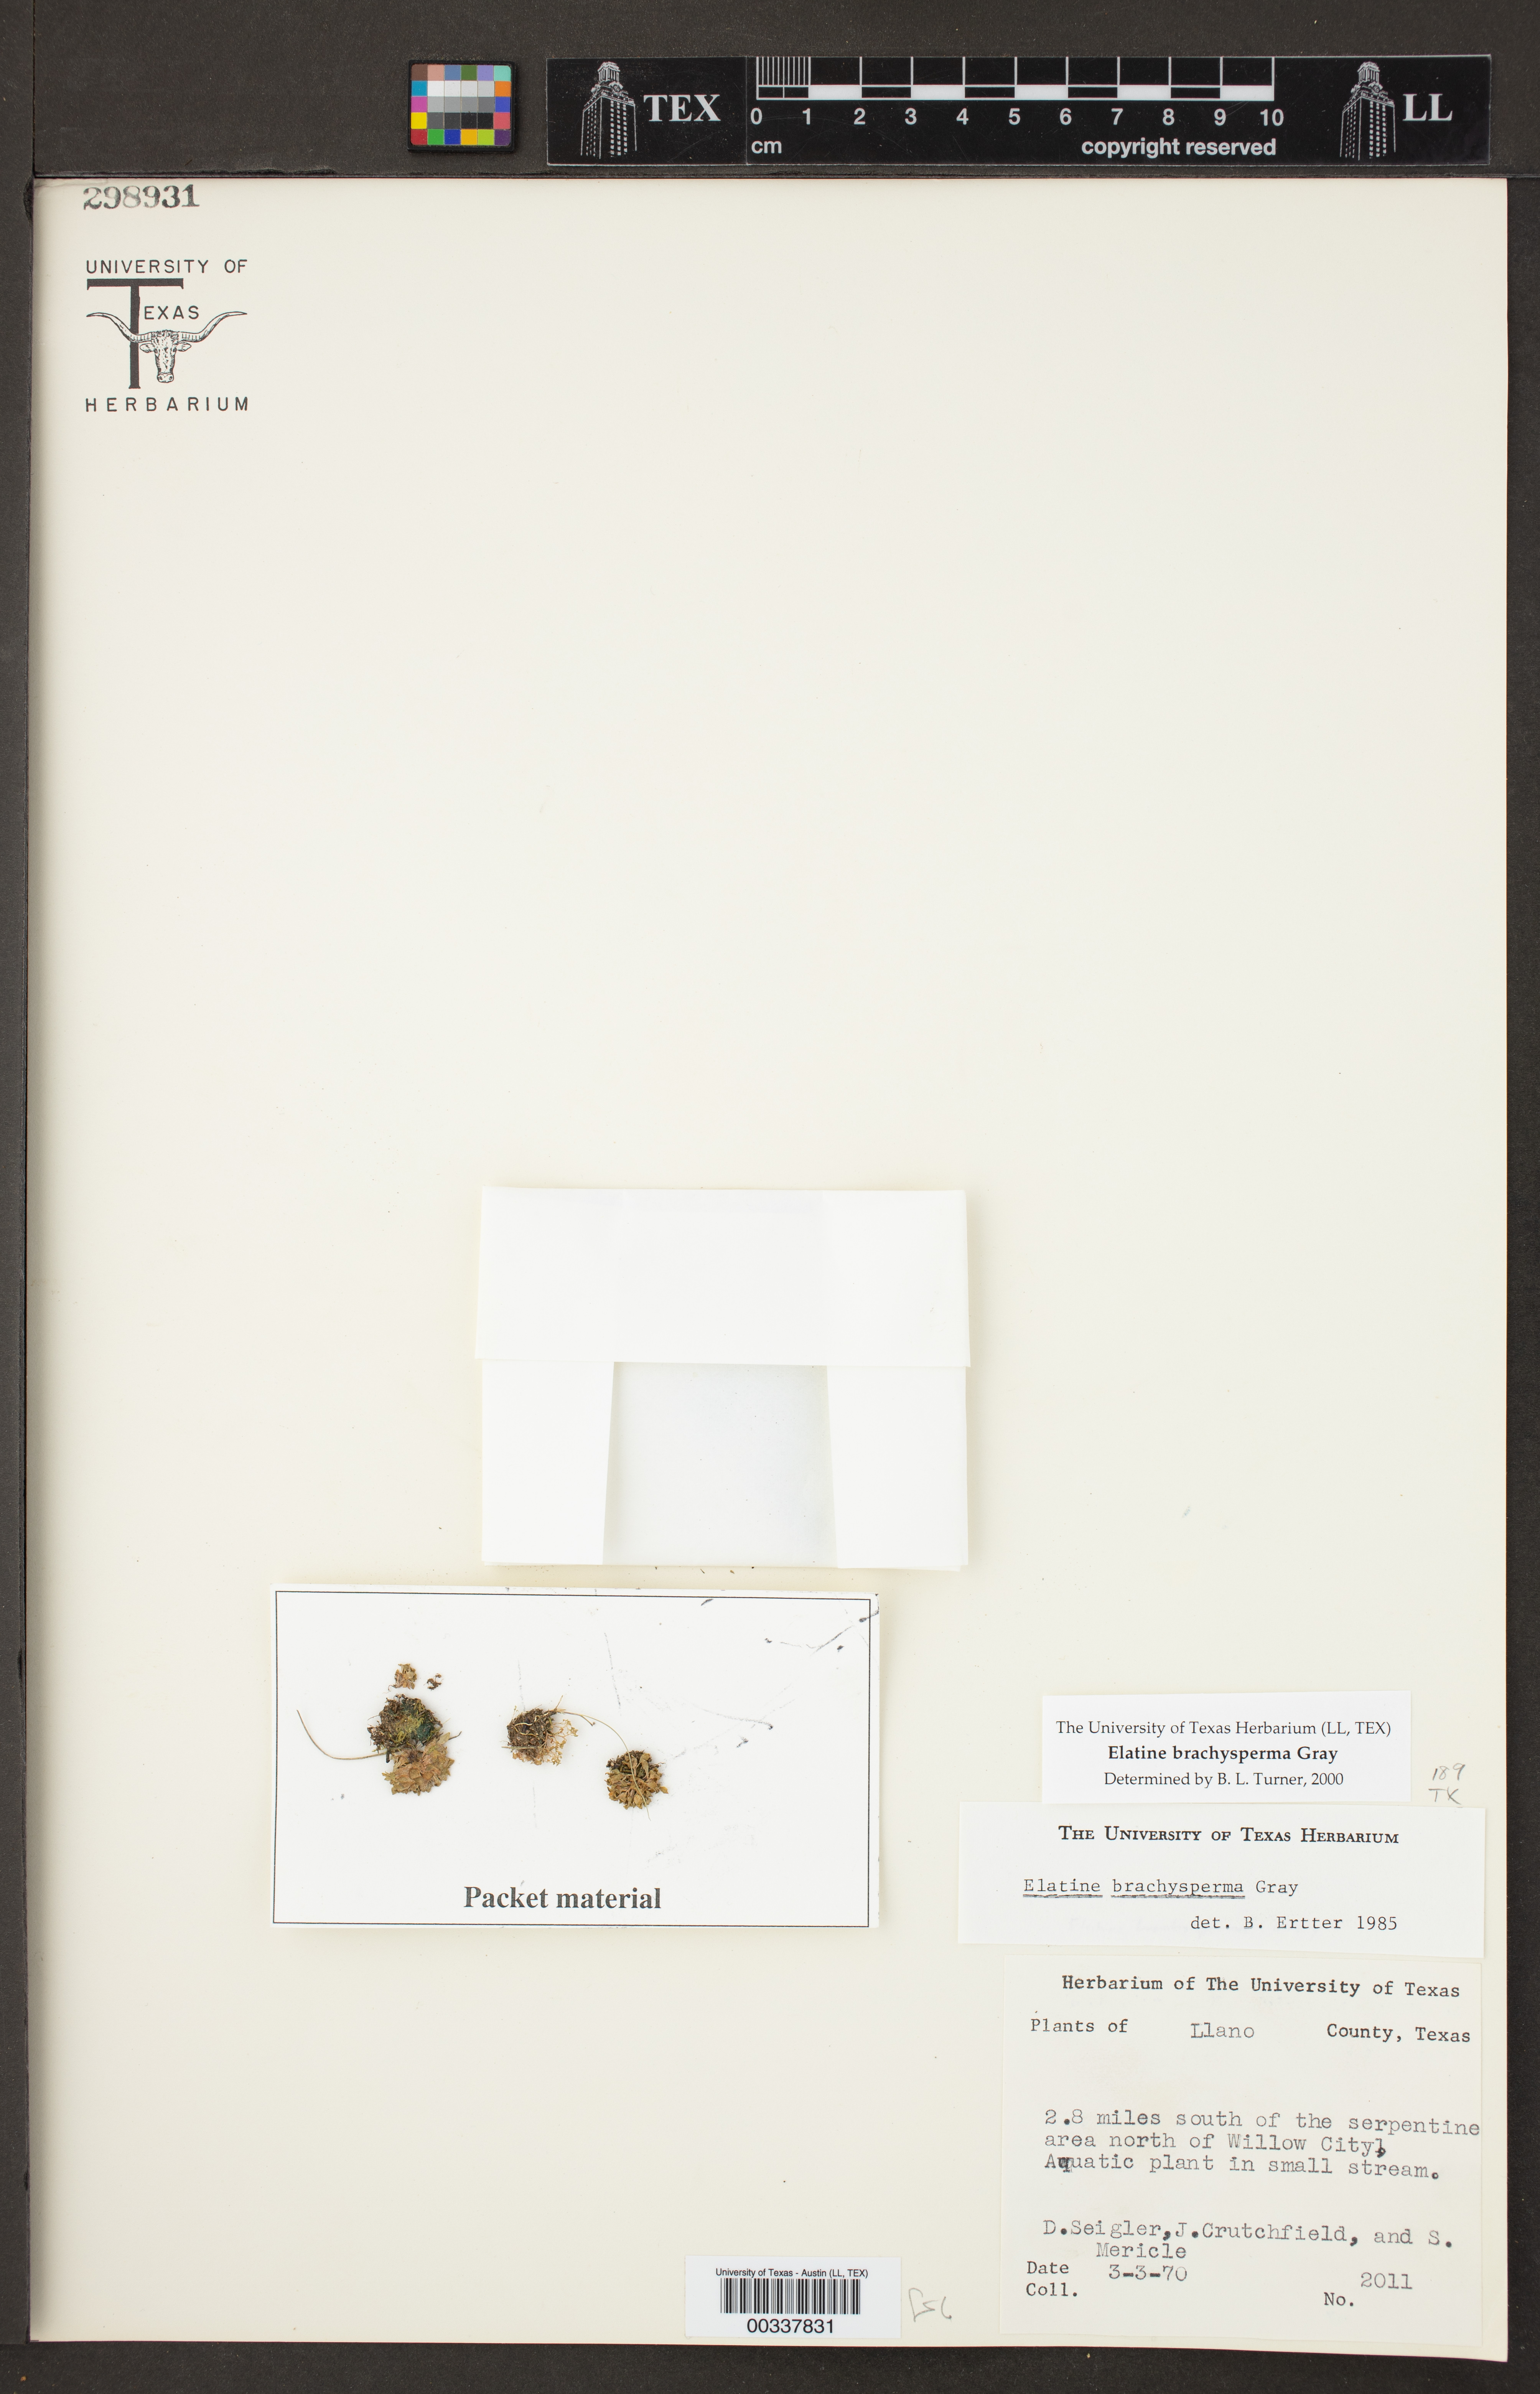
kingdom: Plantae
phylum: Tracheophyta
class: Magnoliopsida
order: Malpighiales
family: Elatinaceae
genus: Elatine
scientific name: Elatine brachysperma
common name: Short-fruited waterwort
